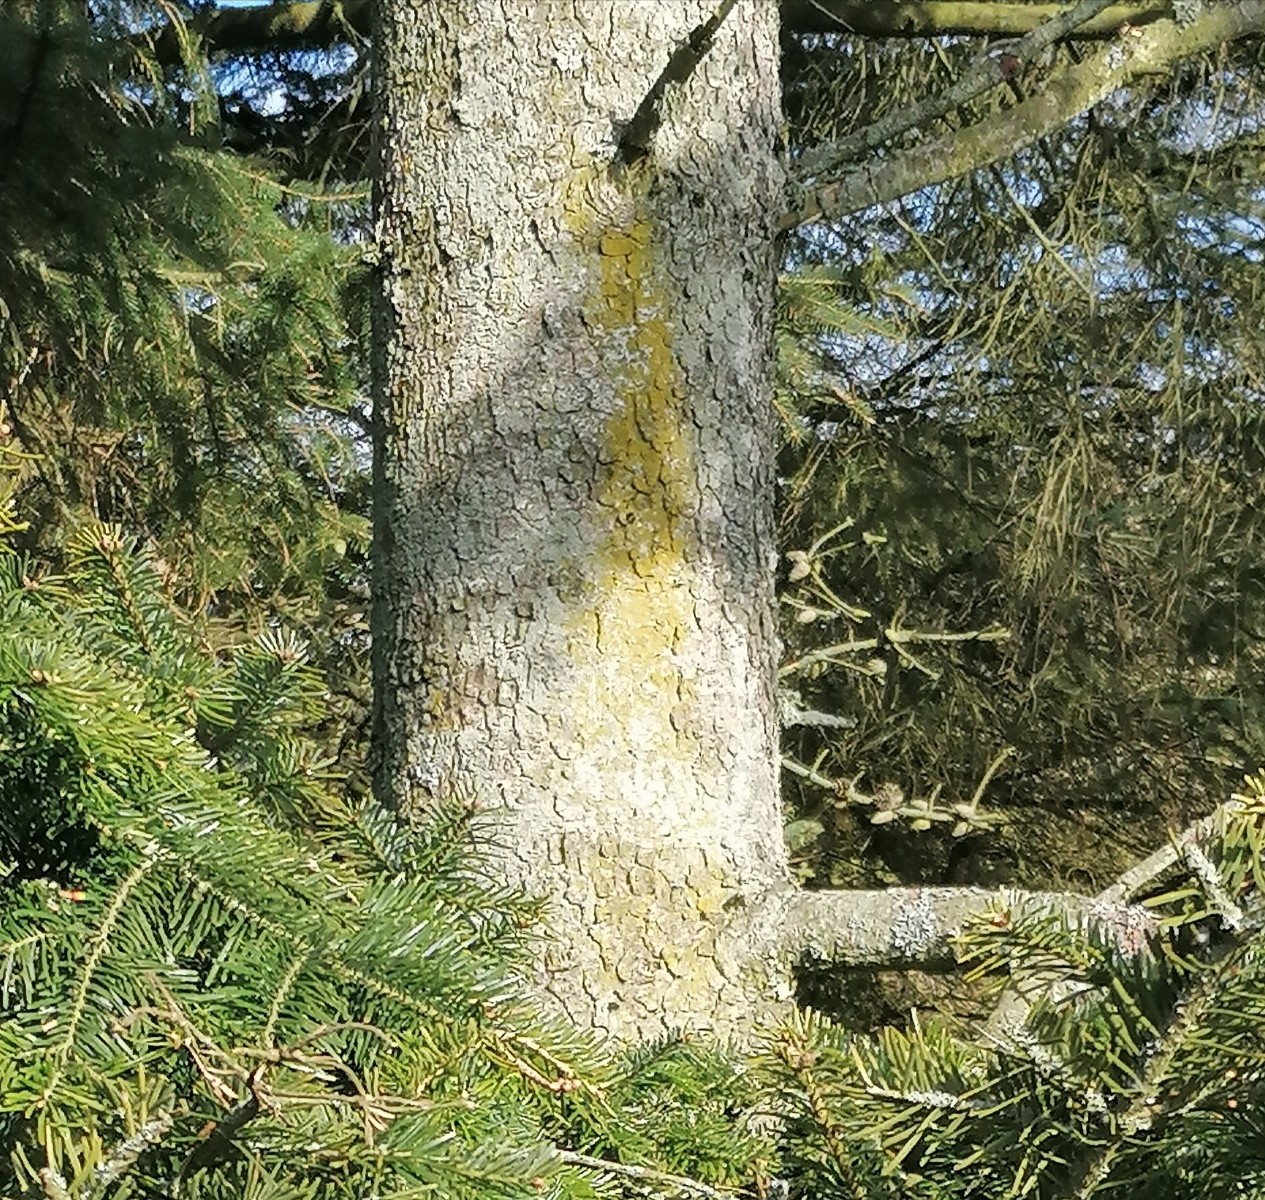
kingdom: Fungi
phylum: Ascomycota
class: Candelariomycetes
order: Candelariales
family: Candelariaceae
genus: Candelaria
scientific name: Candelaria pacifica
